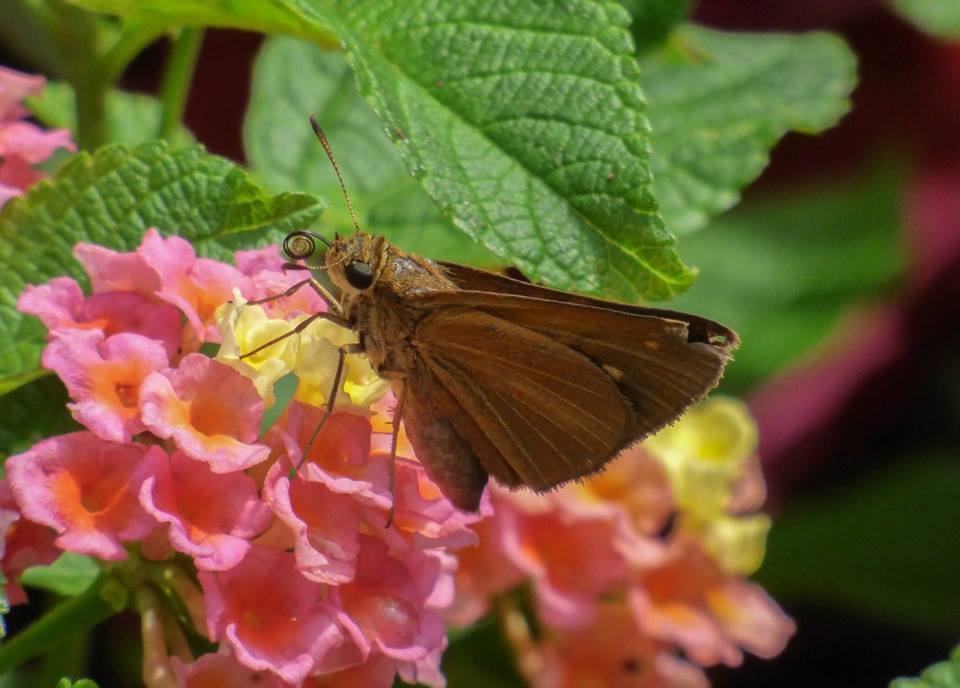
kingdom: Animalia
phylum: Arthropoda
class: Insecta
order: Lepidoptera
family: Hesperiidae
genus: Euphyes
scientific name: Euphyes dion
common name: Dion Skipper
